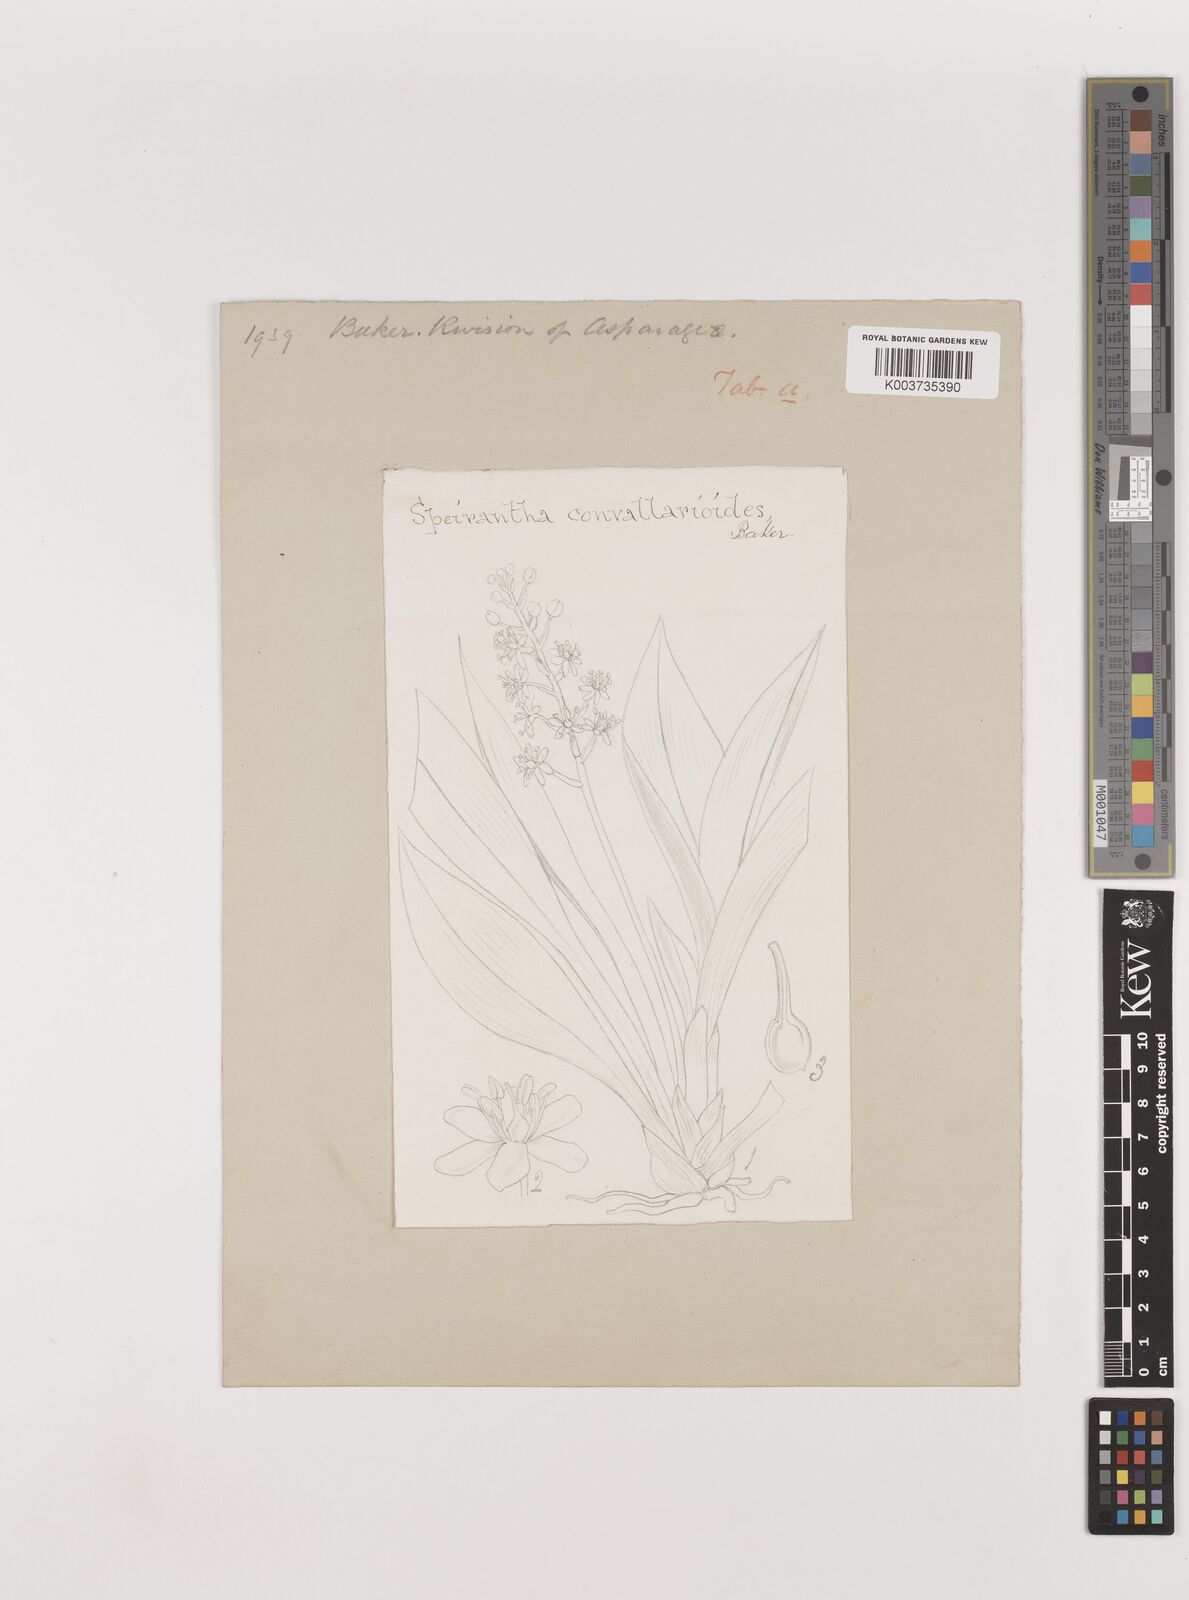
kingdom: Plantae
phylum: Tracheophyta
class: Liliopsida
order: Asparagales
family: Asparagaceae
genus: Speirantha
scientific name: Speirantha gardenii
